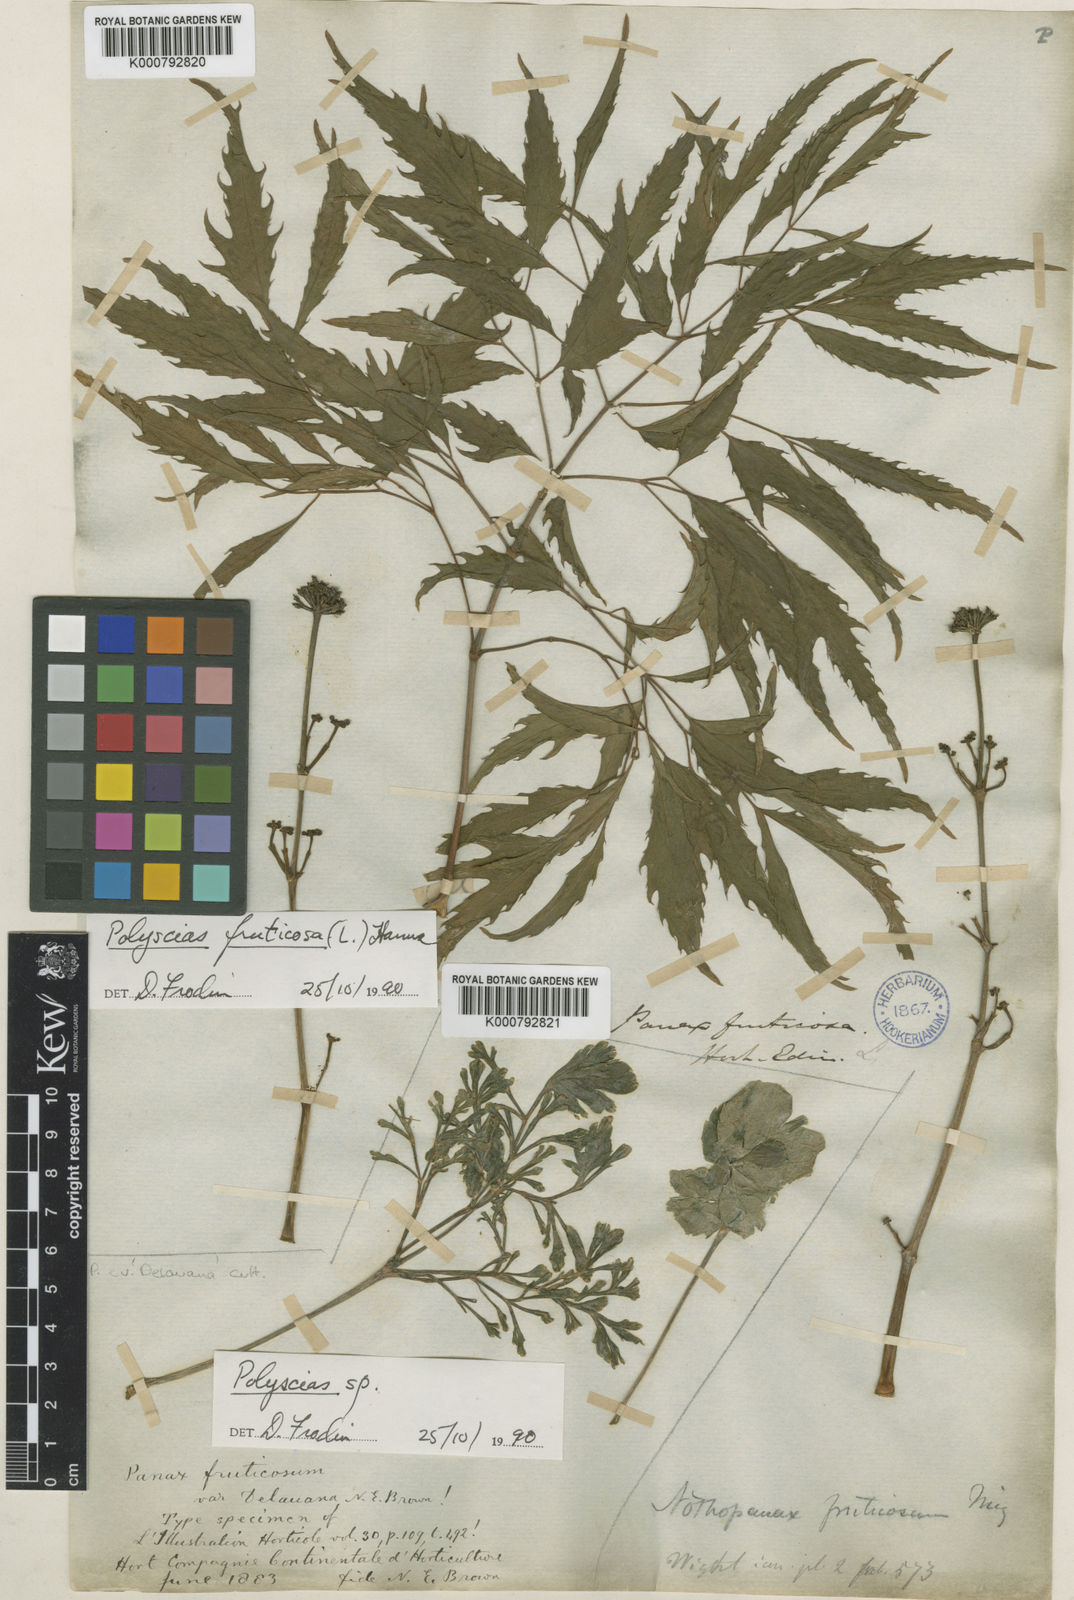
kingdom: Plantae
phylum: Tracheophyta
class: Magnoliopsida
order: Apiales
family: Araliaceae
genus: Polyscias
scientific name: Polyscias fruticosa
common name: Teatree
